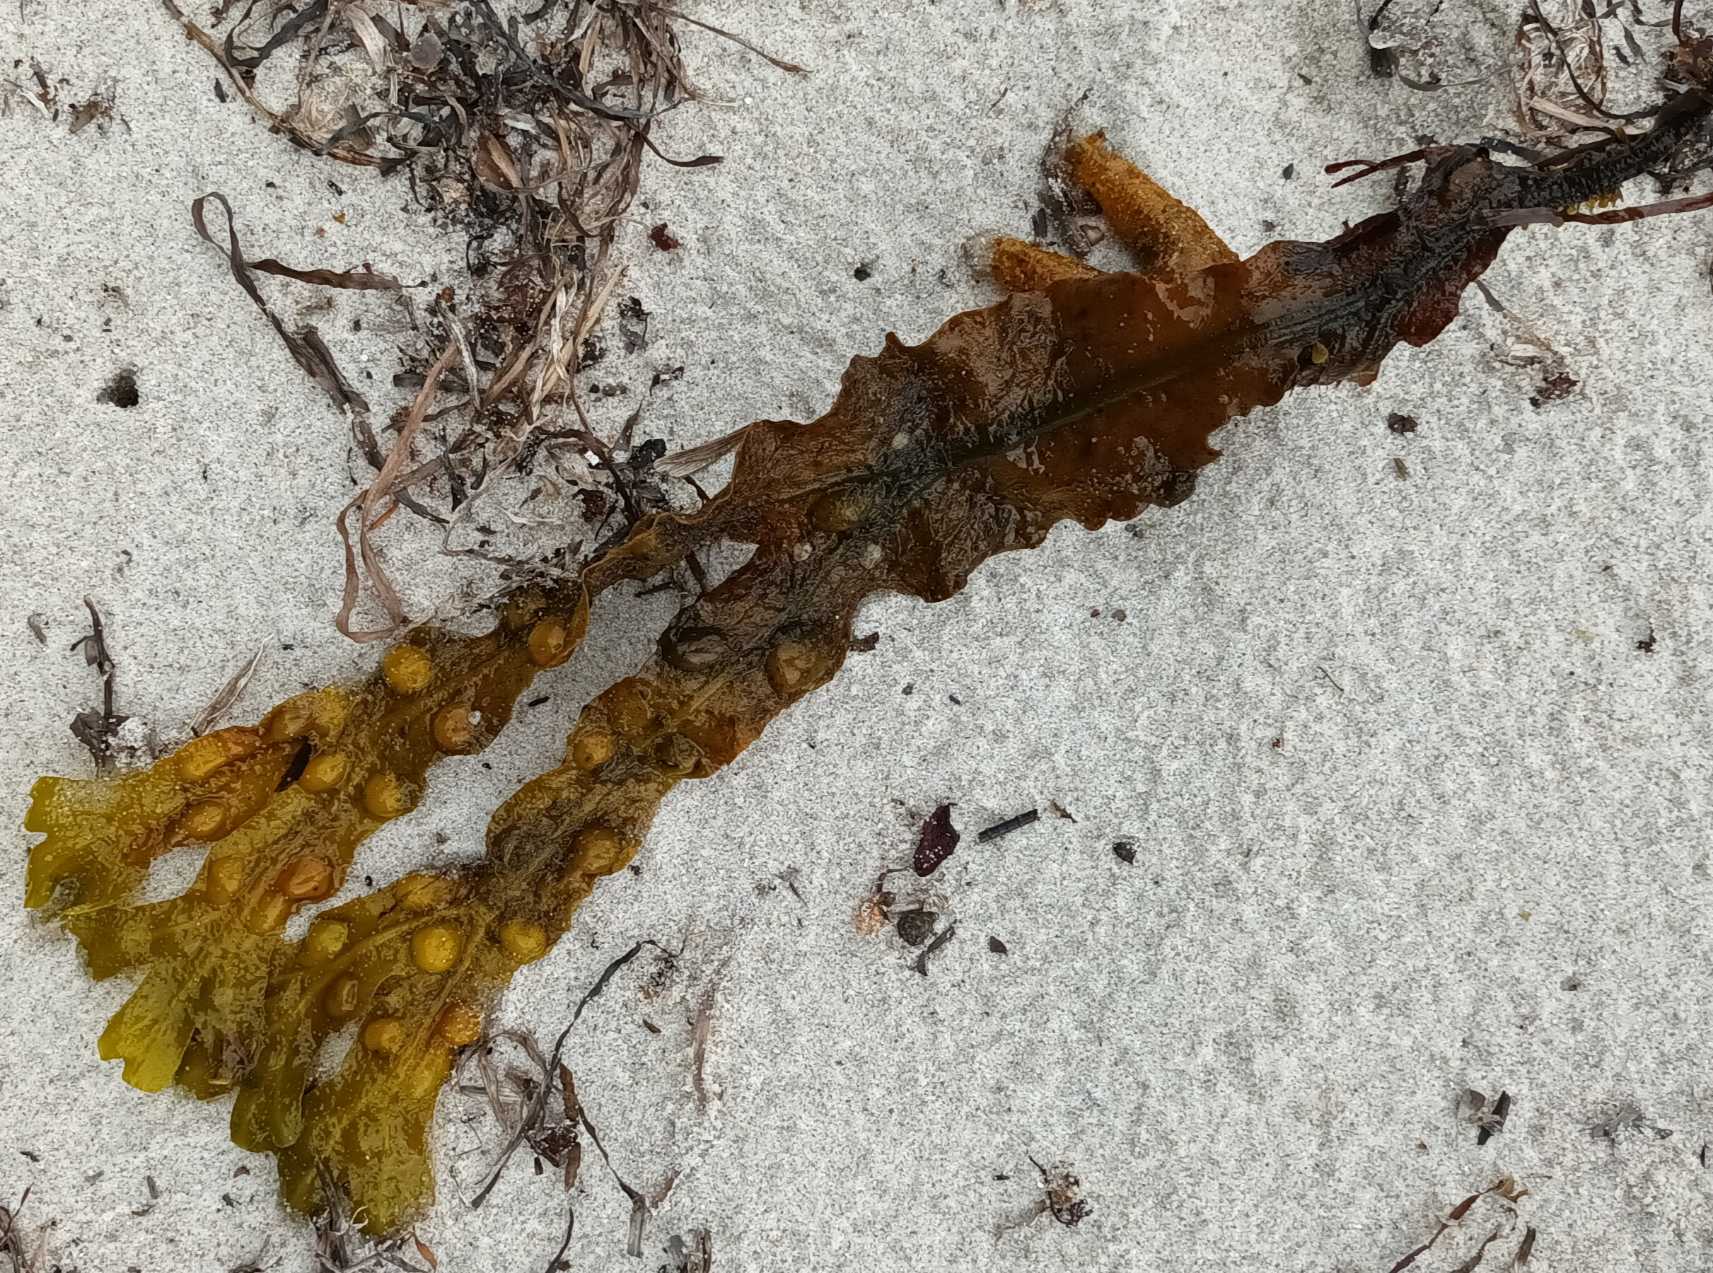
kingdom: Chromista
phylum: Ochrophyta
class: Phaeophyceae
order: Fucales
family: Fucaceae
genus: Fucus
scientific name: Fucus vesiculosus
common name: Blæretang
